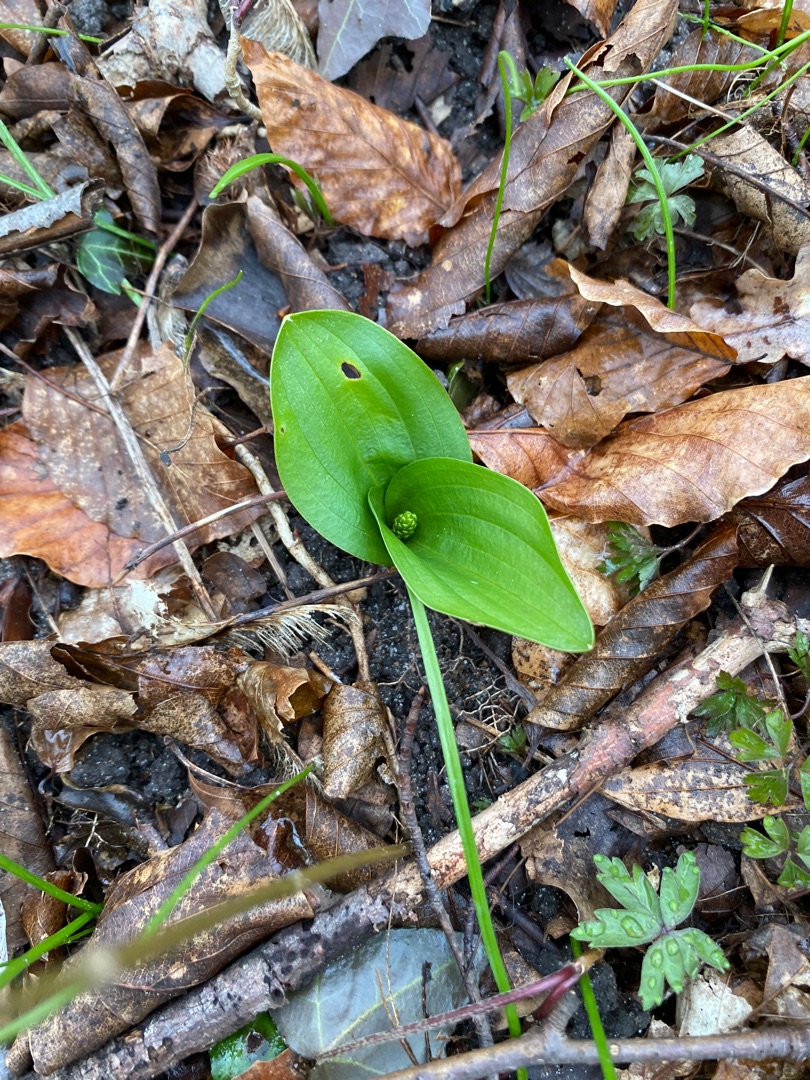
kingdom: Plantae
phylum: Tracheophyta
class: Liliopsida
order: Asparagales
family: Orchidaceae
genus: Neottia
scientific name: Neottia ovata
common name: Ægbladet fliglæbe
